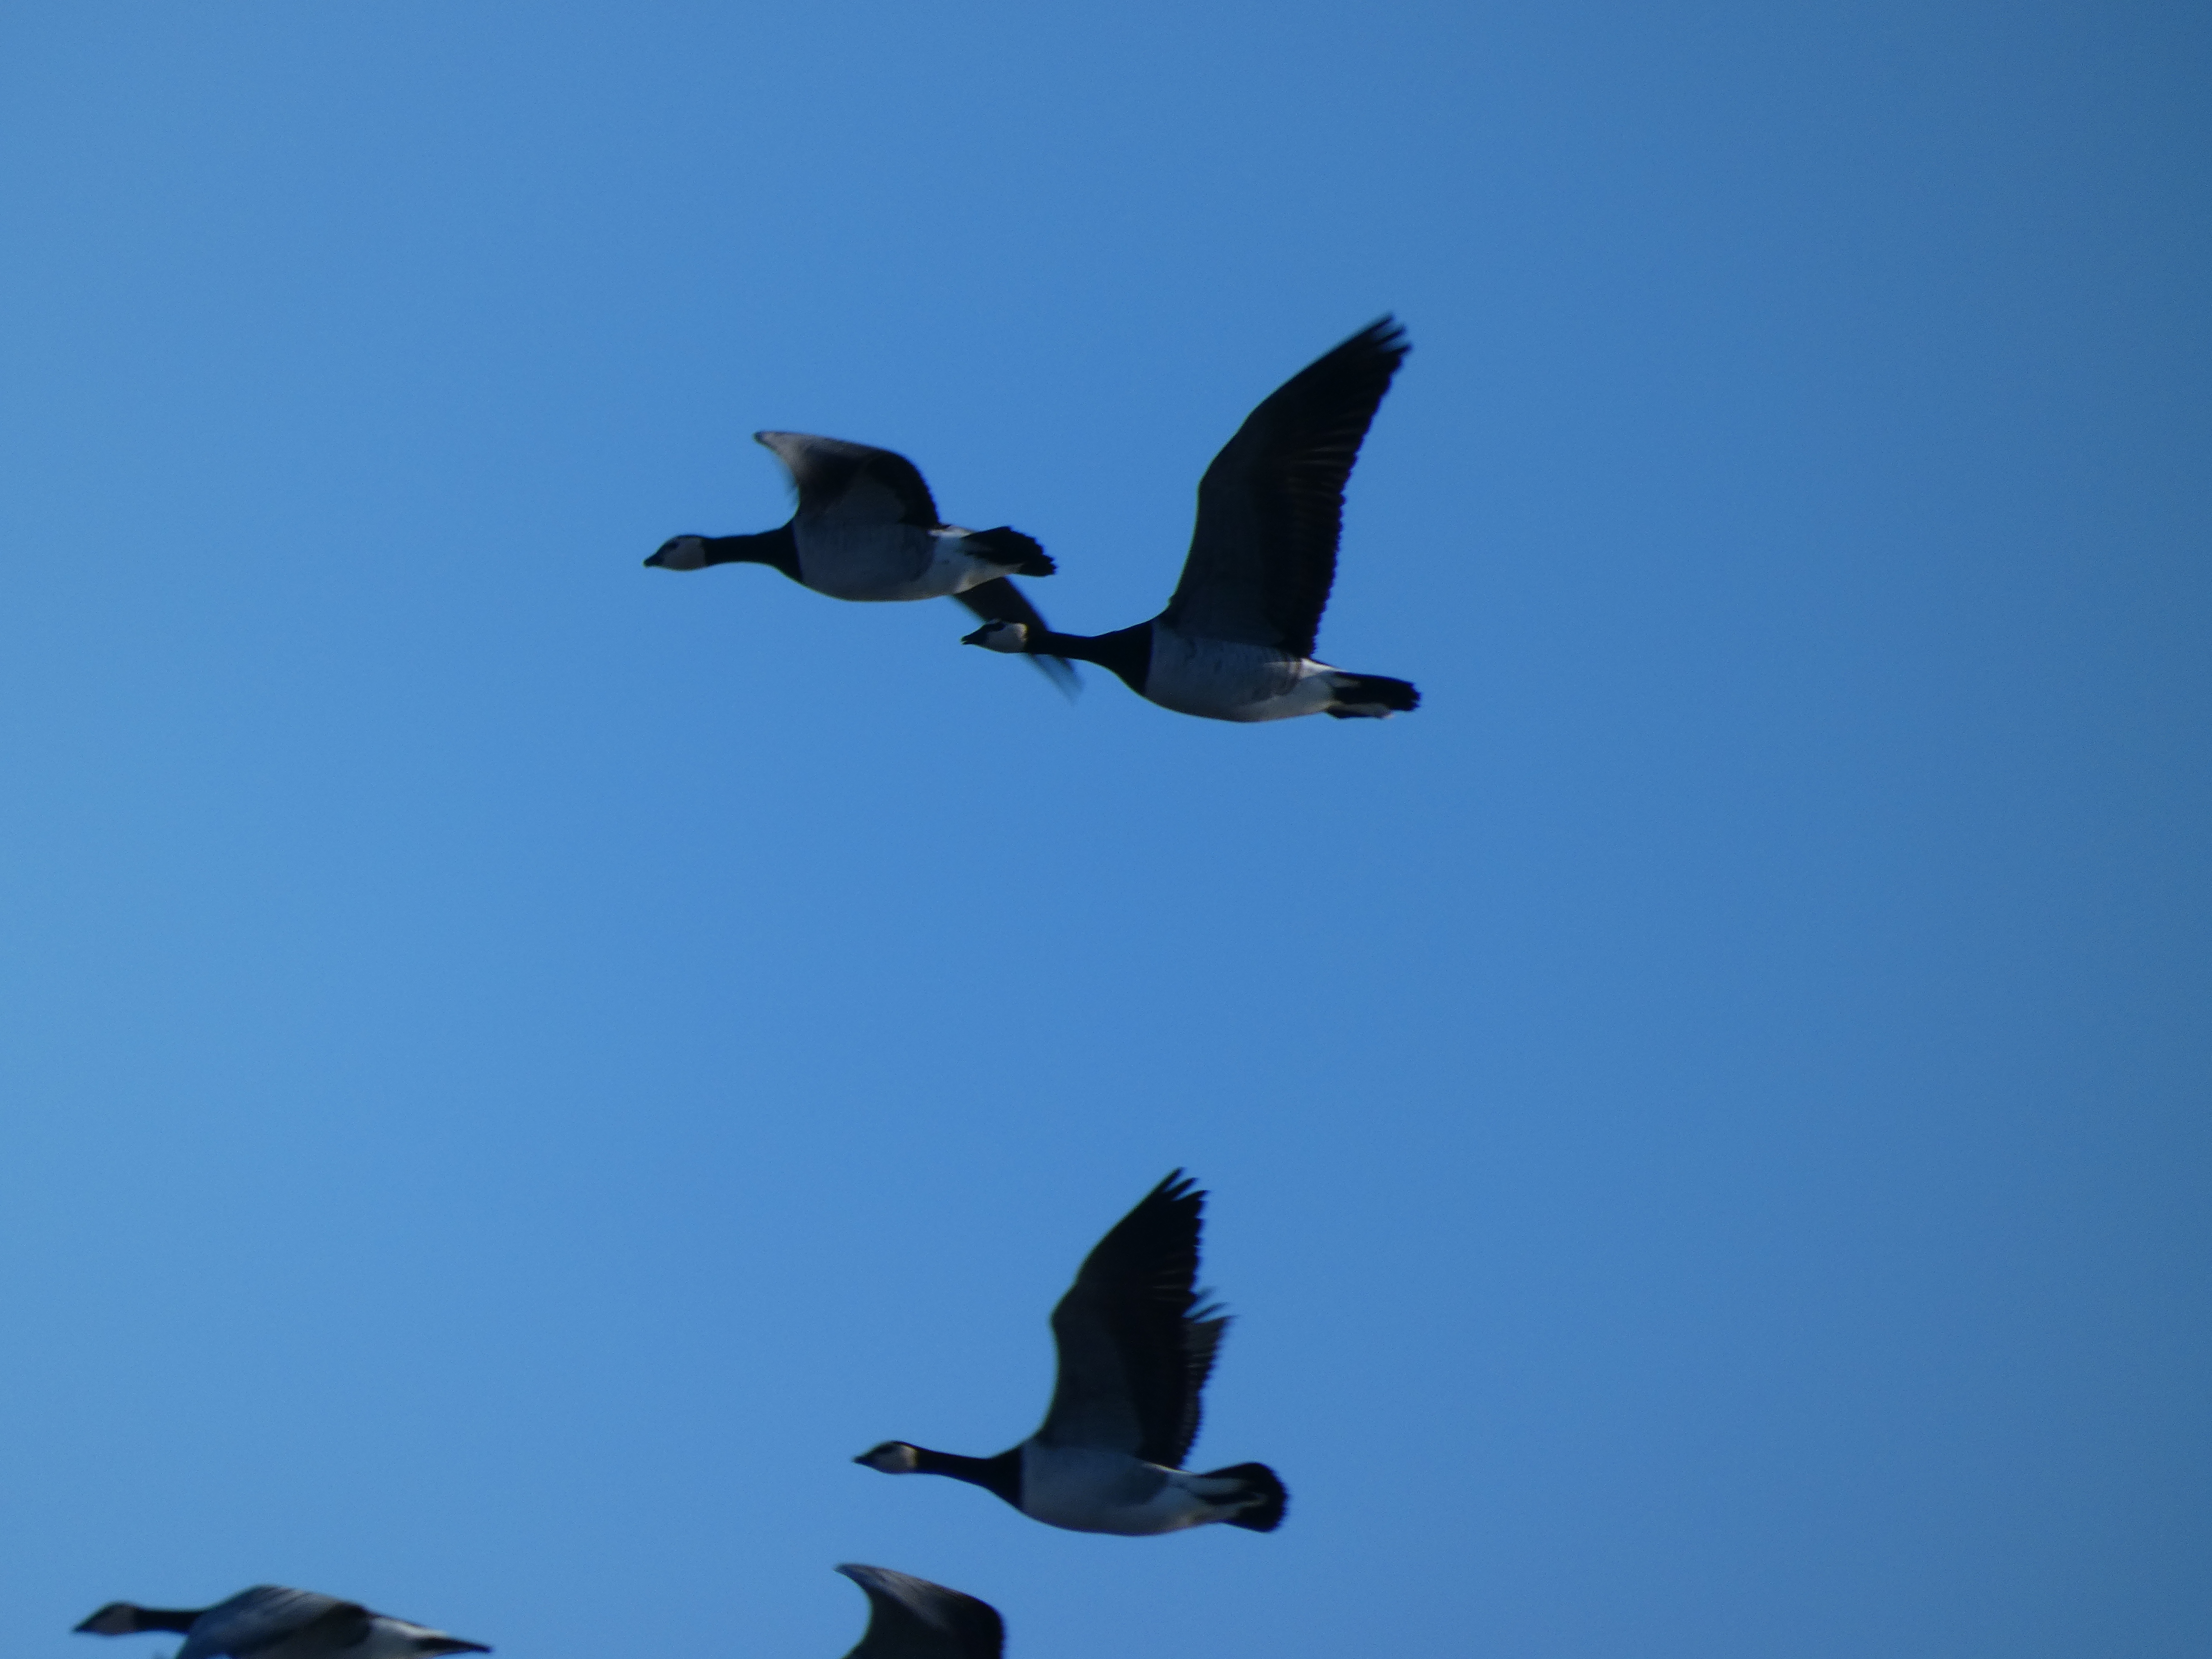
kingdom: Animalia
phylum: Chordata
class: Aves
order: Anseriformes
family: Anatidae
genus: Branta
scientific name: Branta leucopsis
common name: Bramgås
